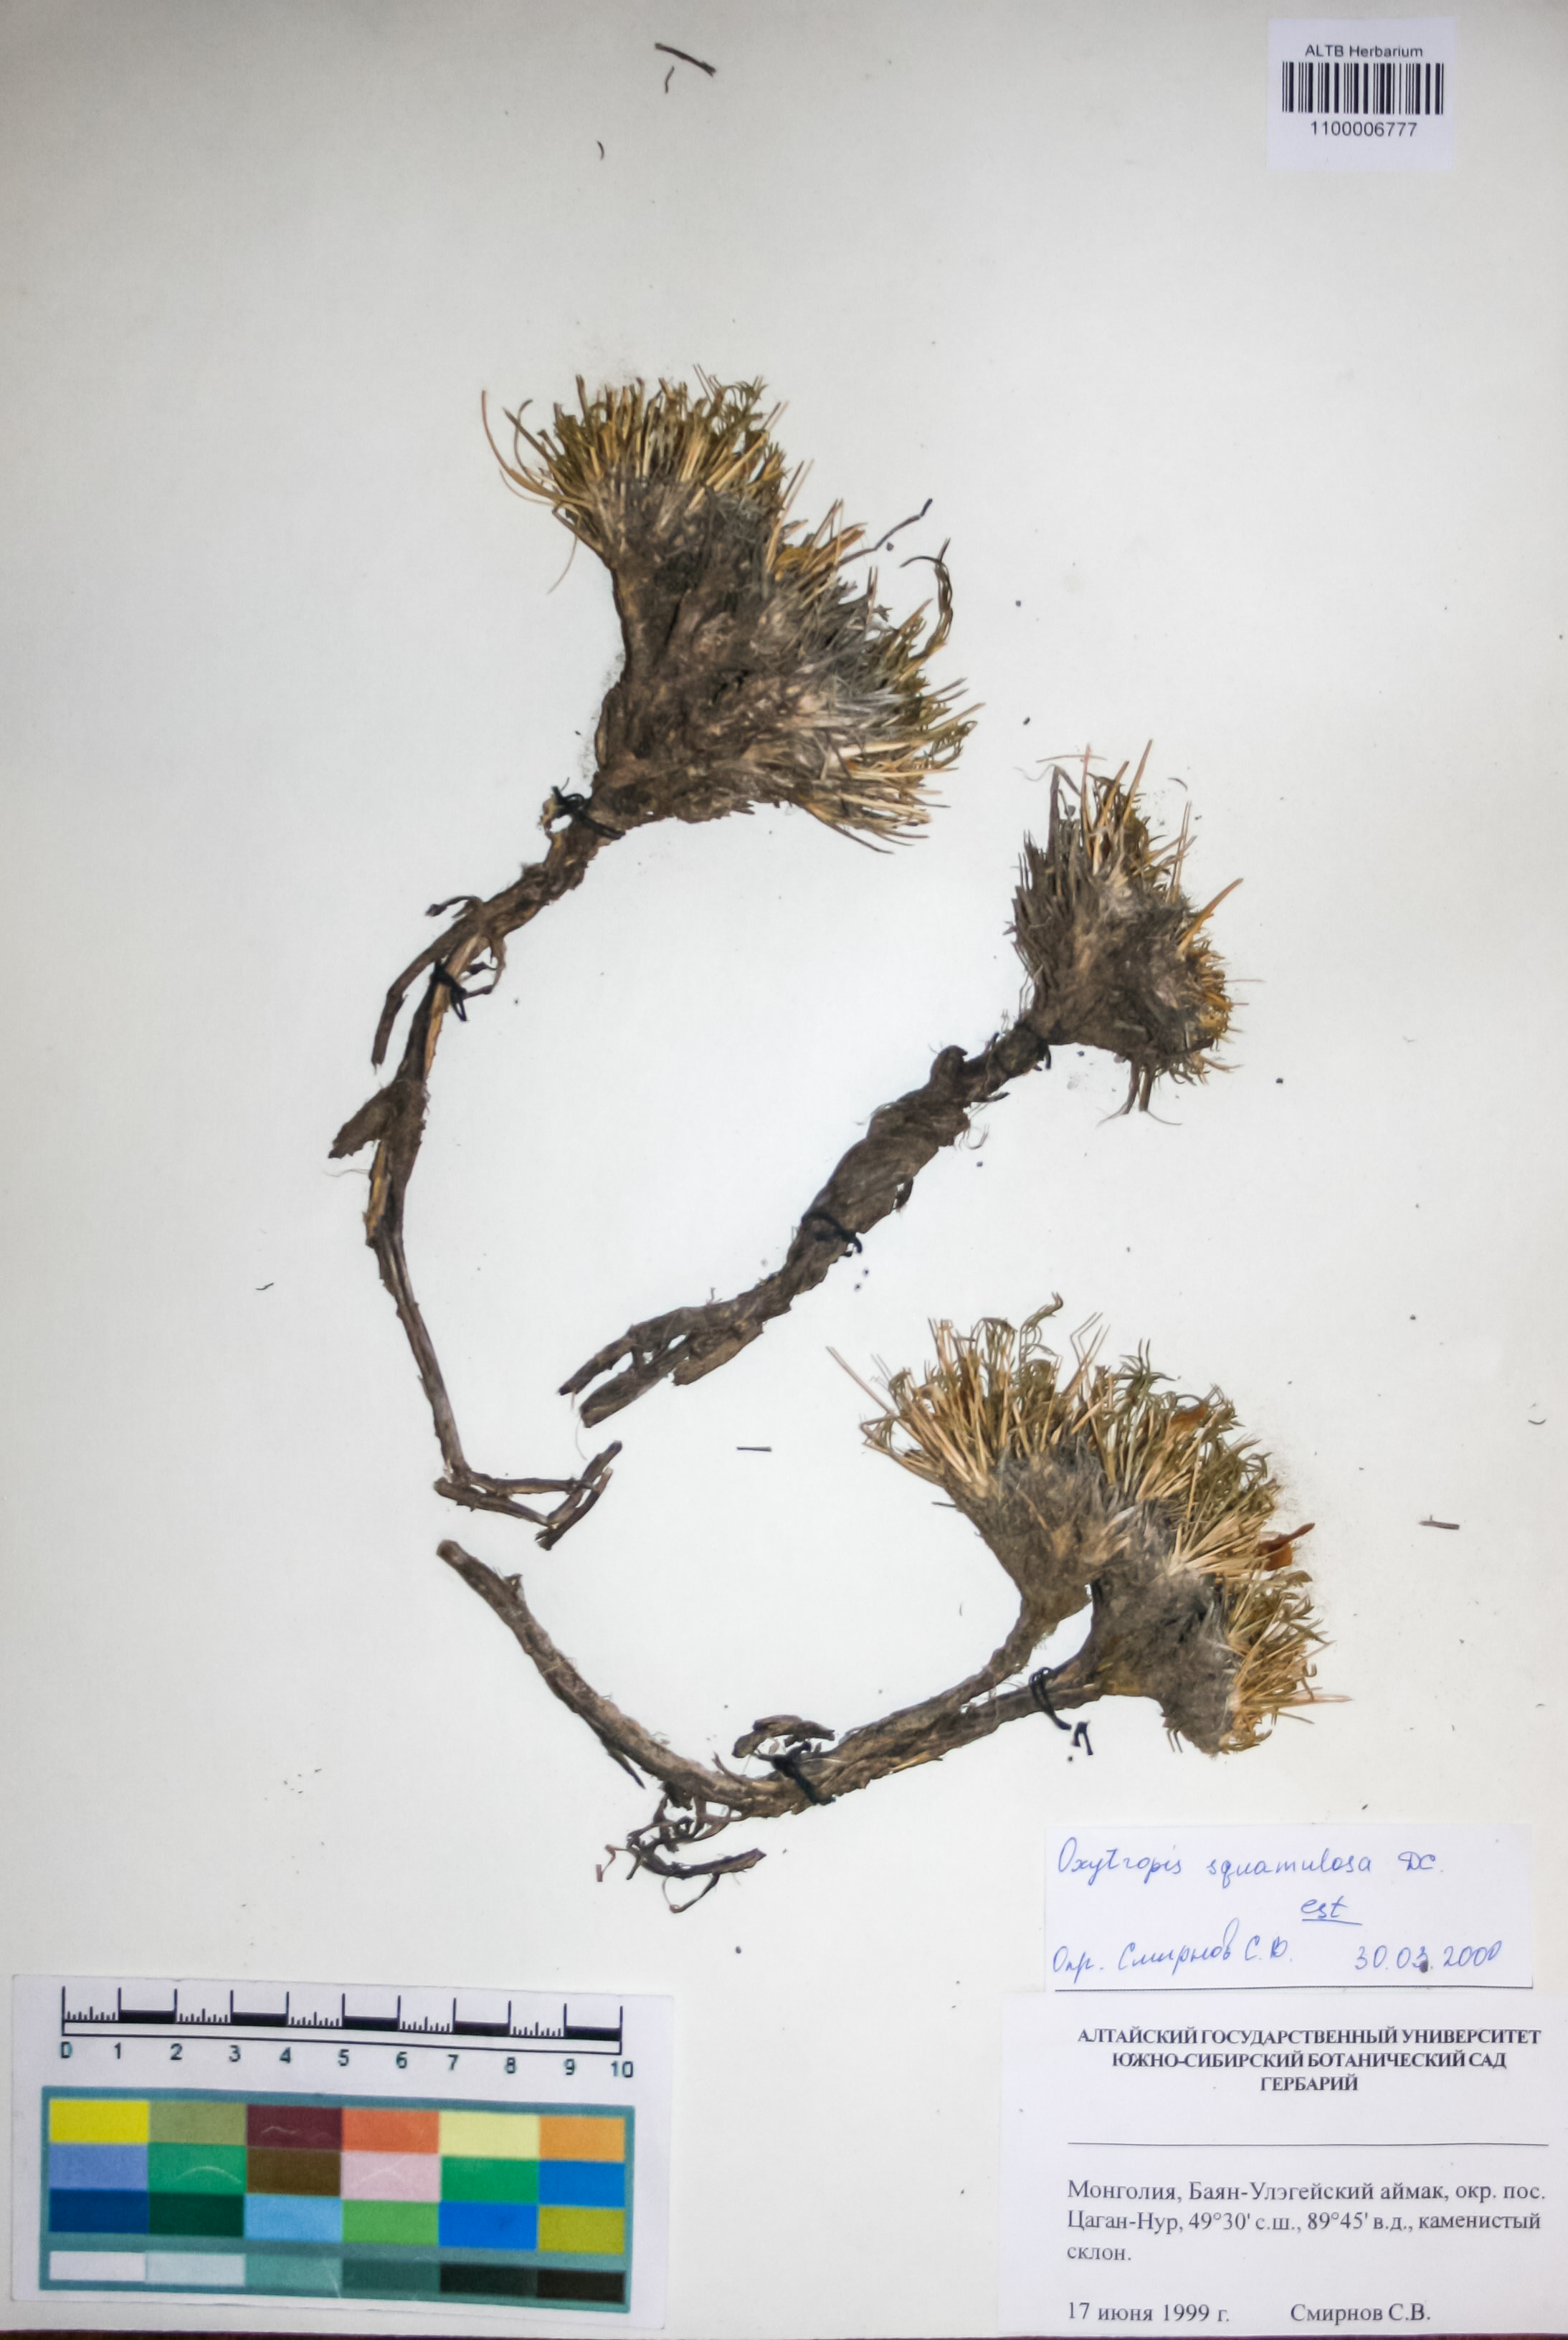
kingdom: Plantae
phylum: Tracheophyta
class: Magnoliopsida
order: Fabales
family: Fabaceae
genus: Oxytropis
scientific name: Oxytropis squammulosa
